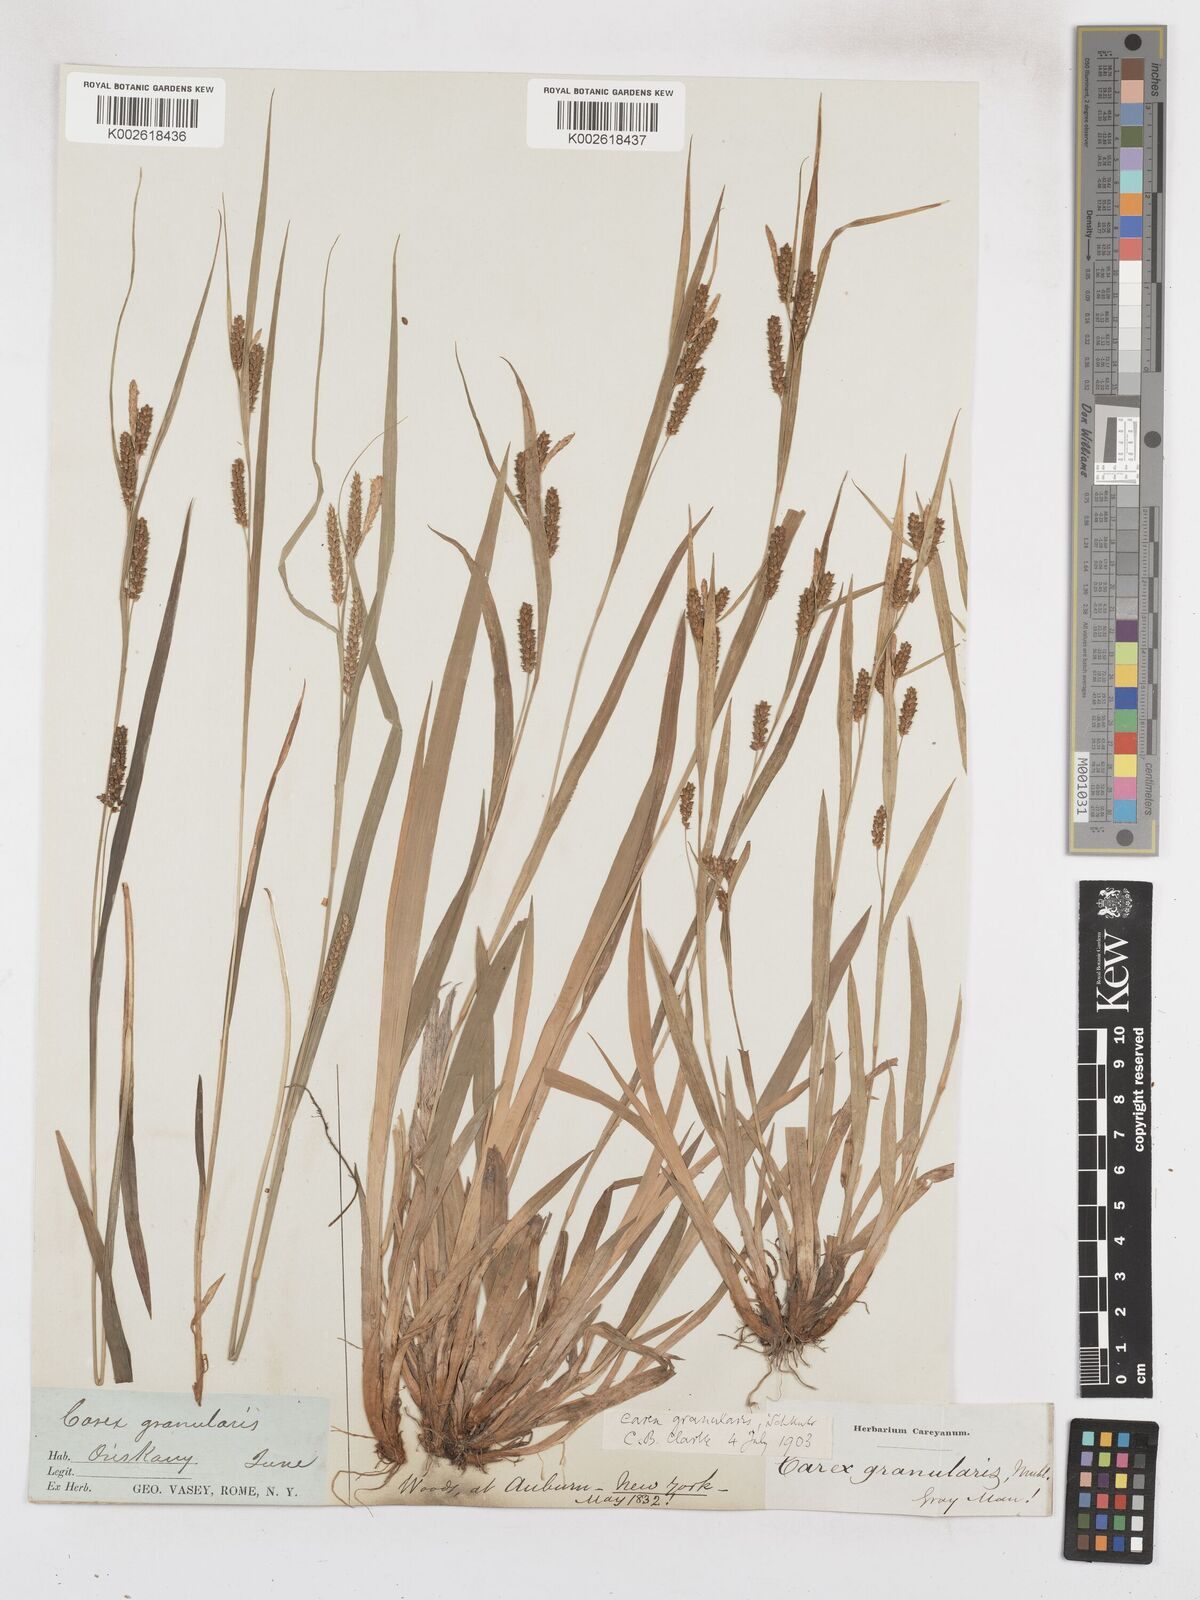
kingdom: Plantae
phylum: Tracheophyta
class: Liliopsida
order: Poales
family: Cyperaceae
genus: Carex
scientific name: Carex livida
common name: Livid sedge
